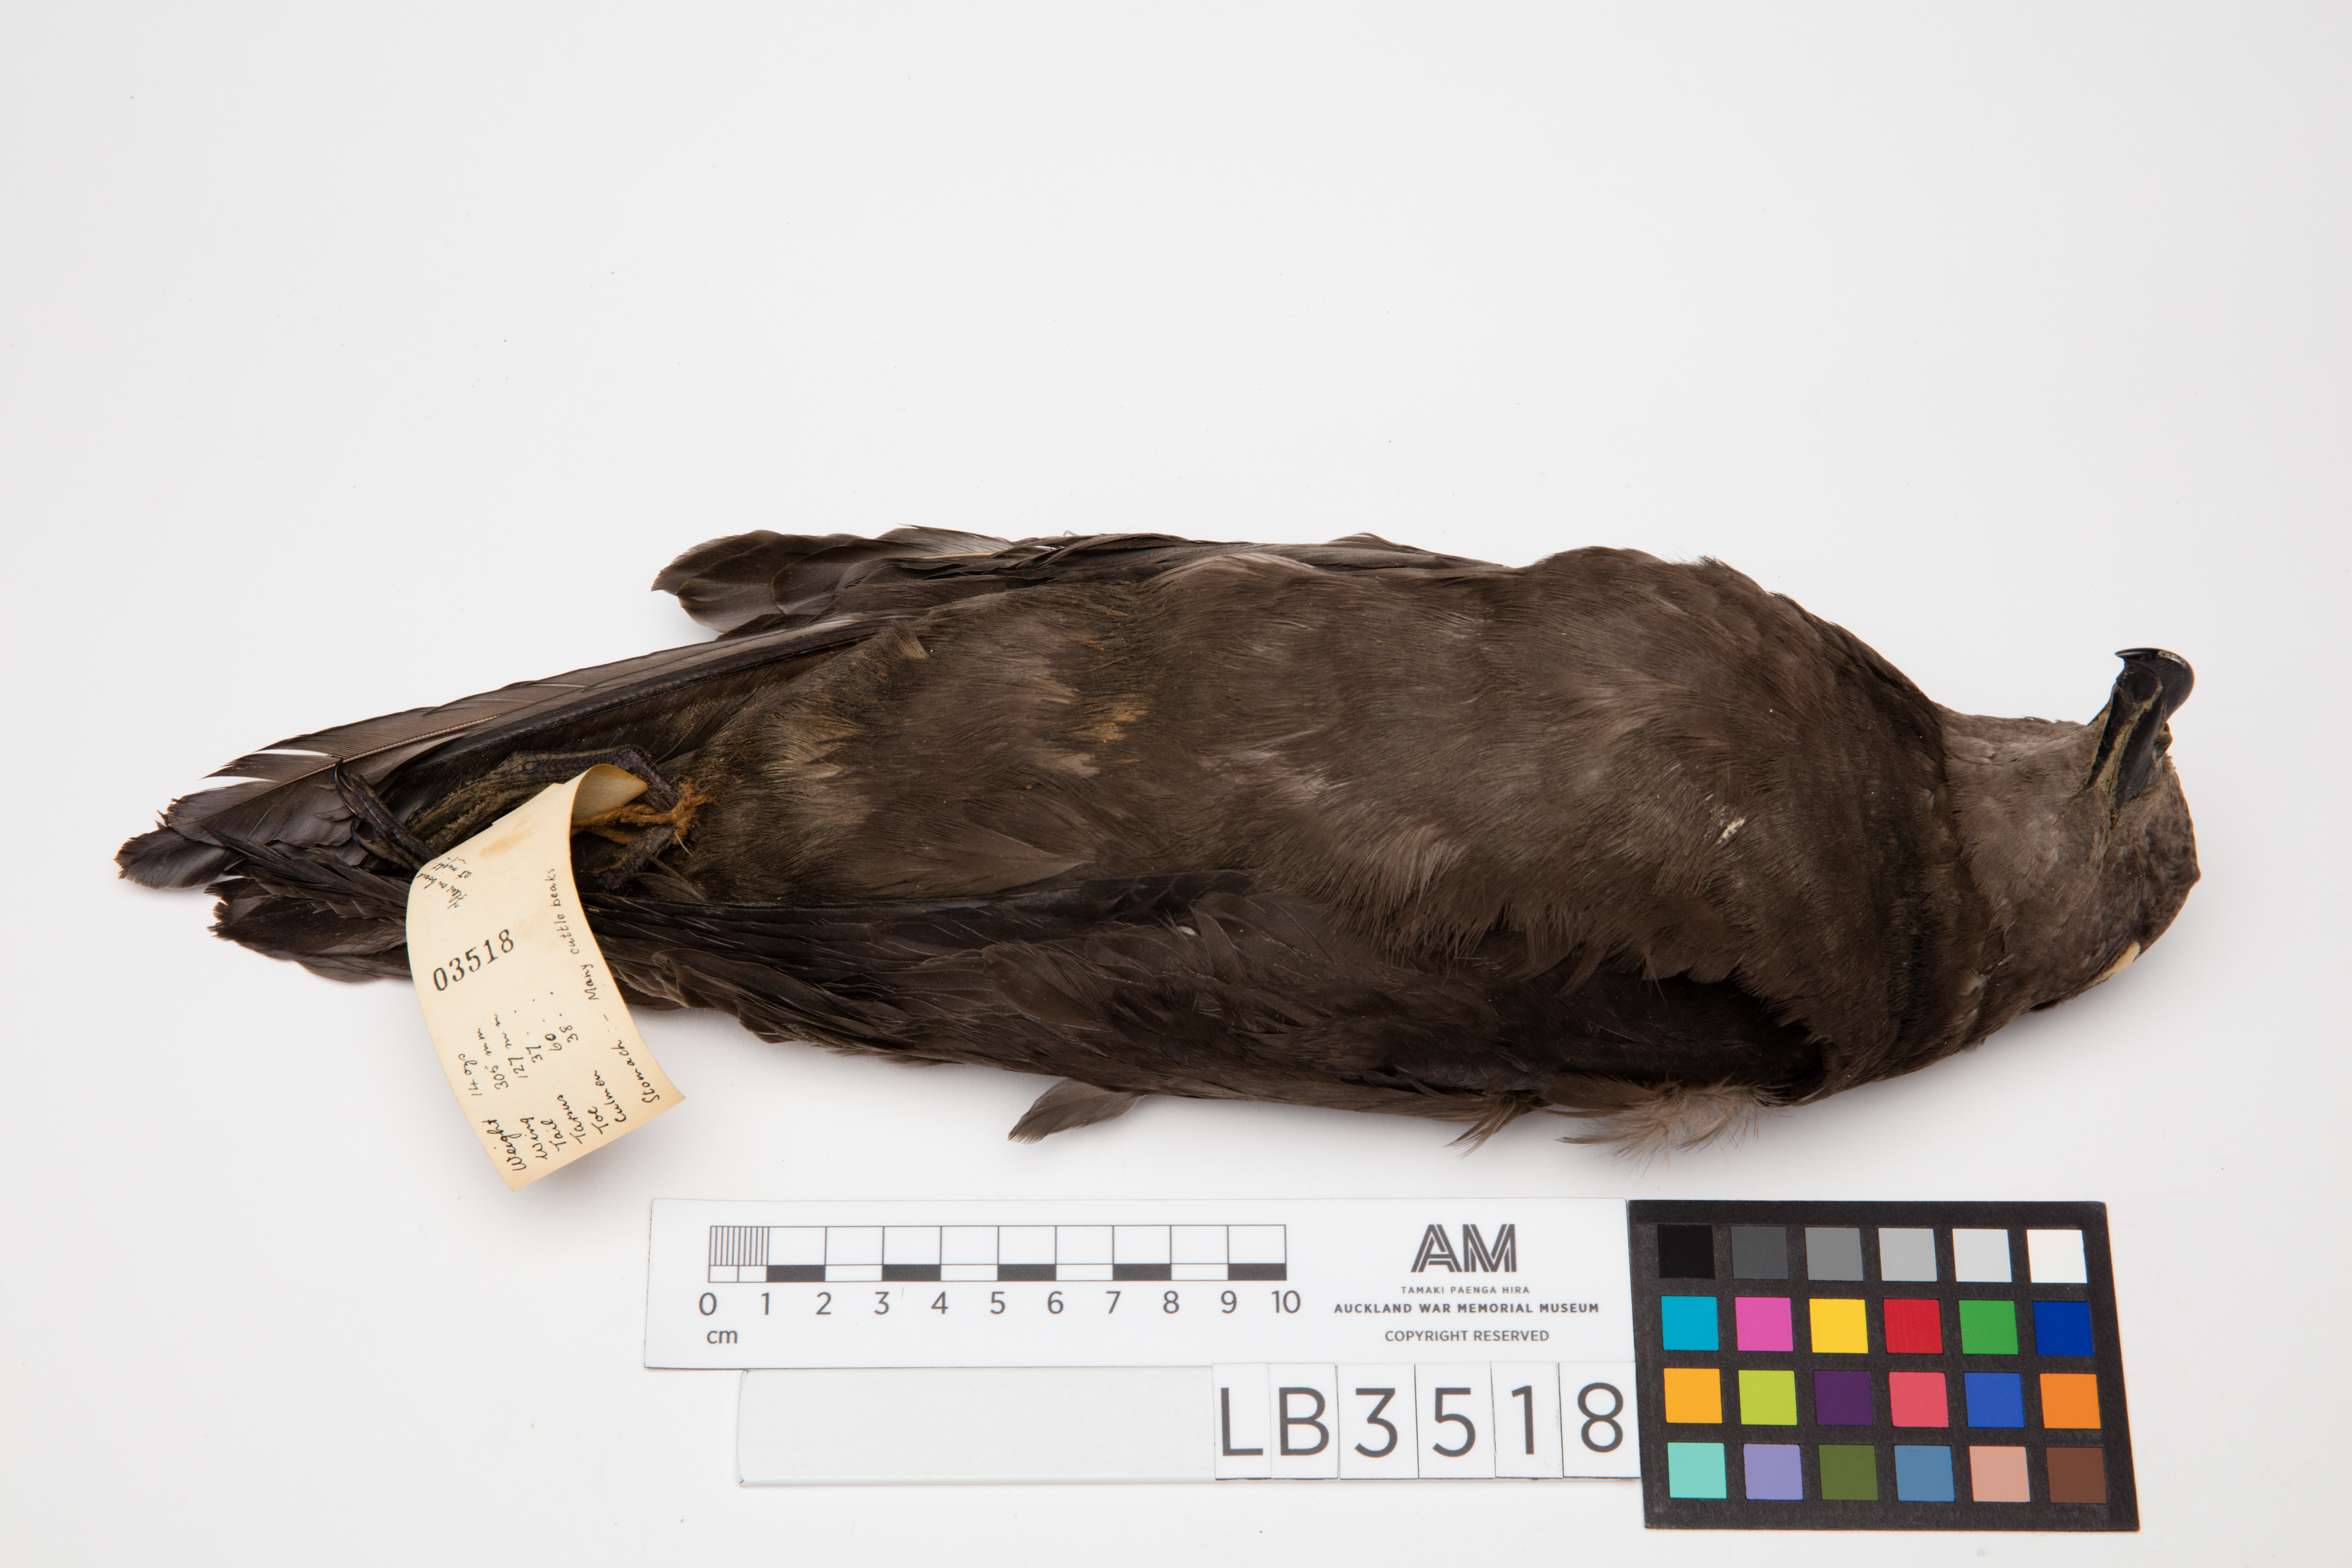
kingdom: Animalia
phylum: Chordata
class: Aves
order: Procellariiformes
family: Procellariidae
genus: Pterodroma
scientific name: Pterodroma macroptera
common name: Great-winged petrel
